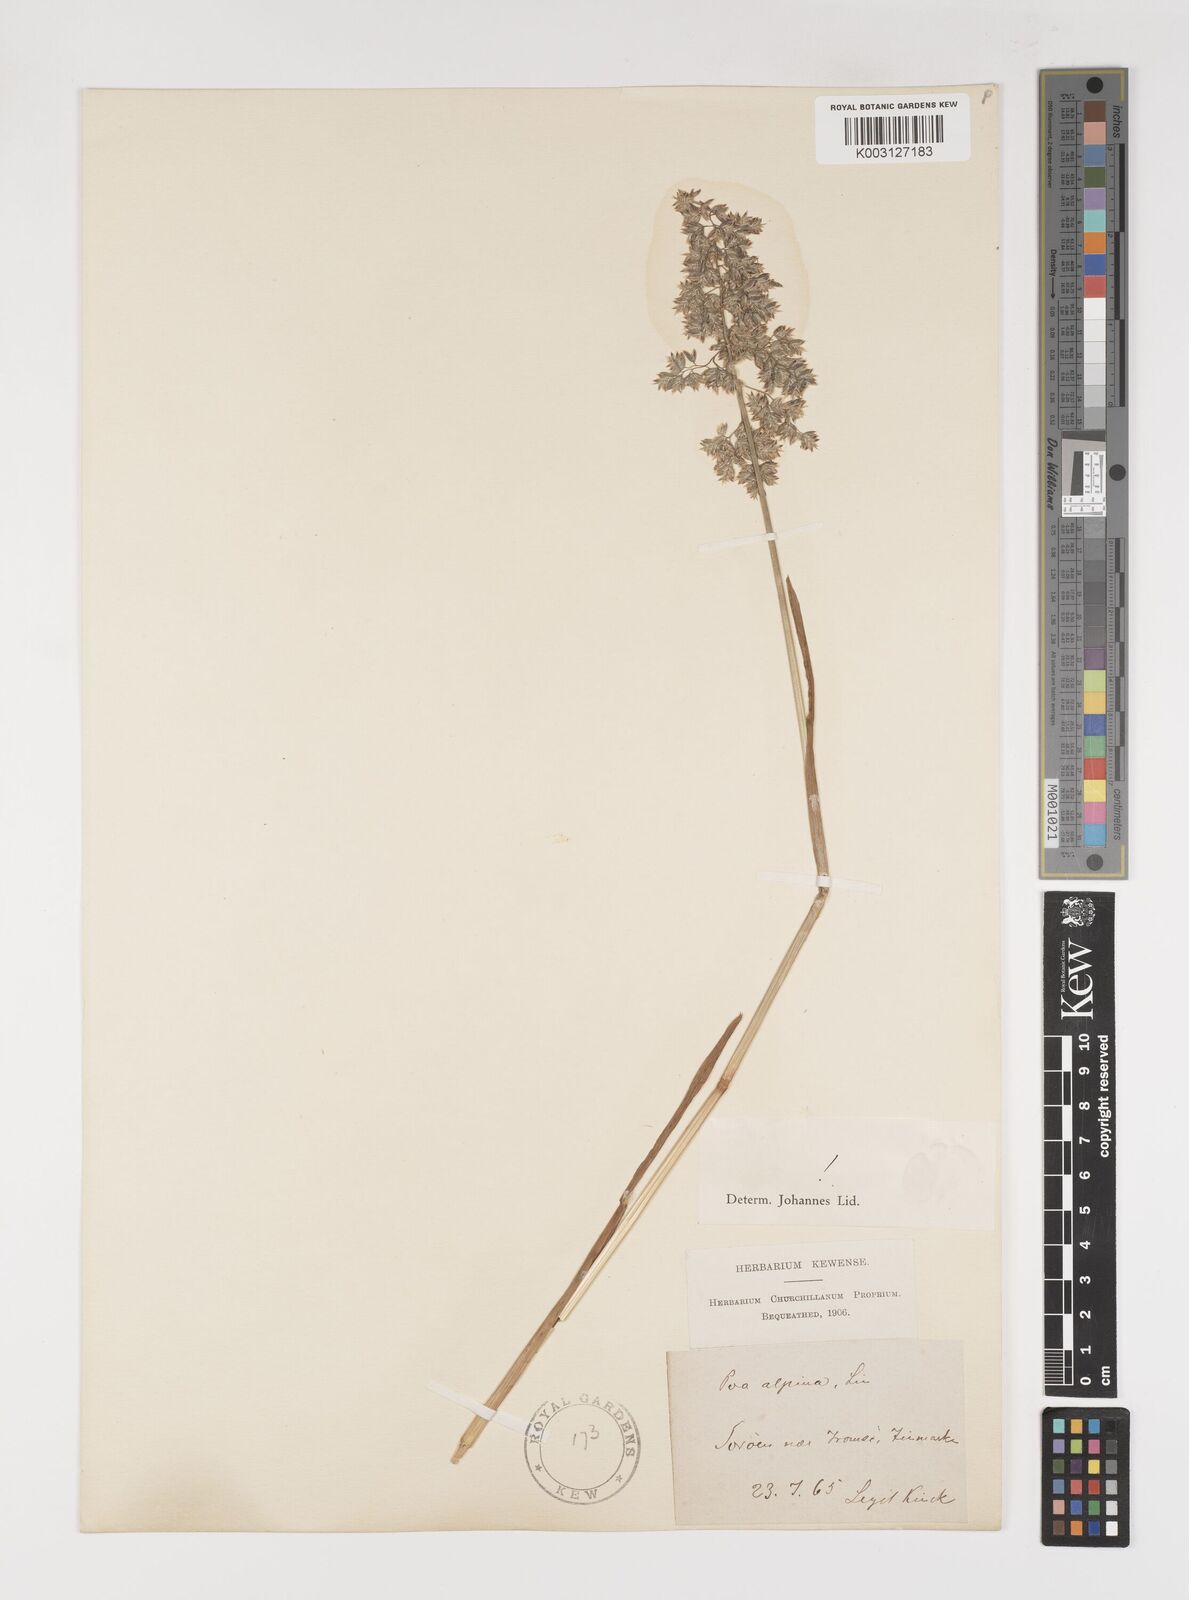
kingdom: Plantae
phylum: Tracheophyta
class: Liliopsida
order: Poales
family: Poaceae
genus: Poa
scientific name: Poa alpina
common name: Alpine bluegrass
